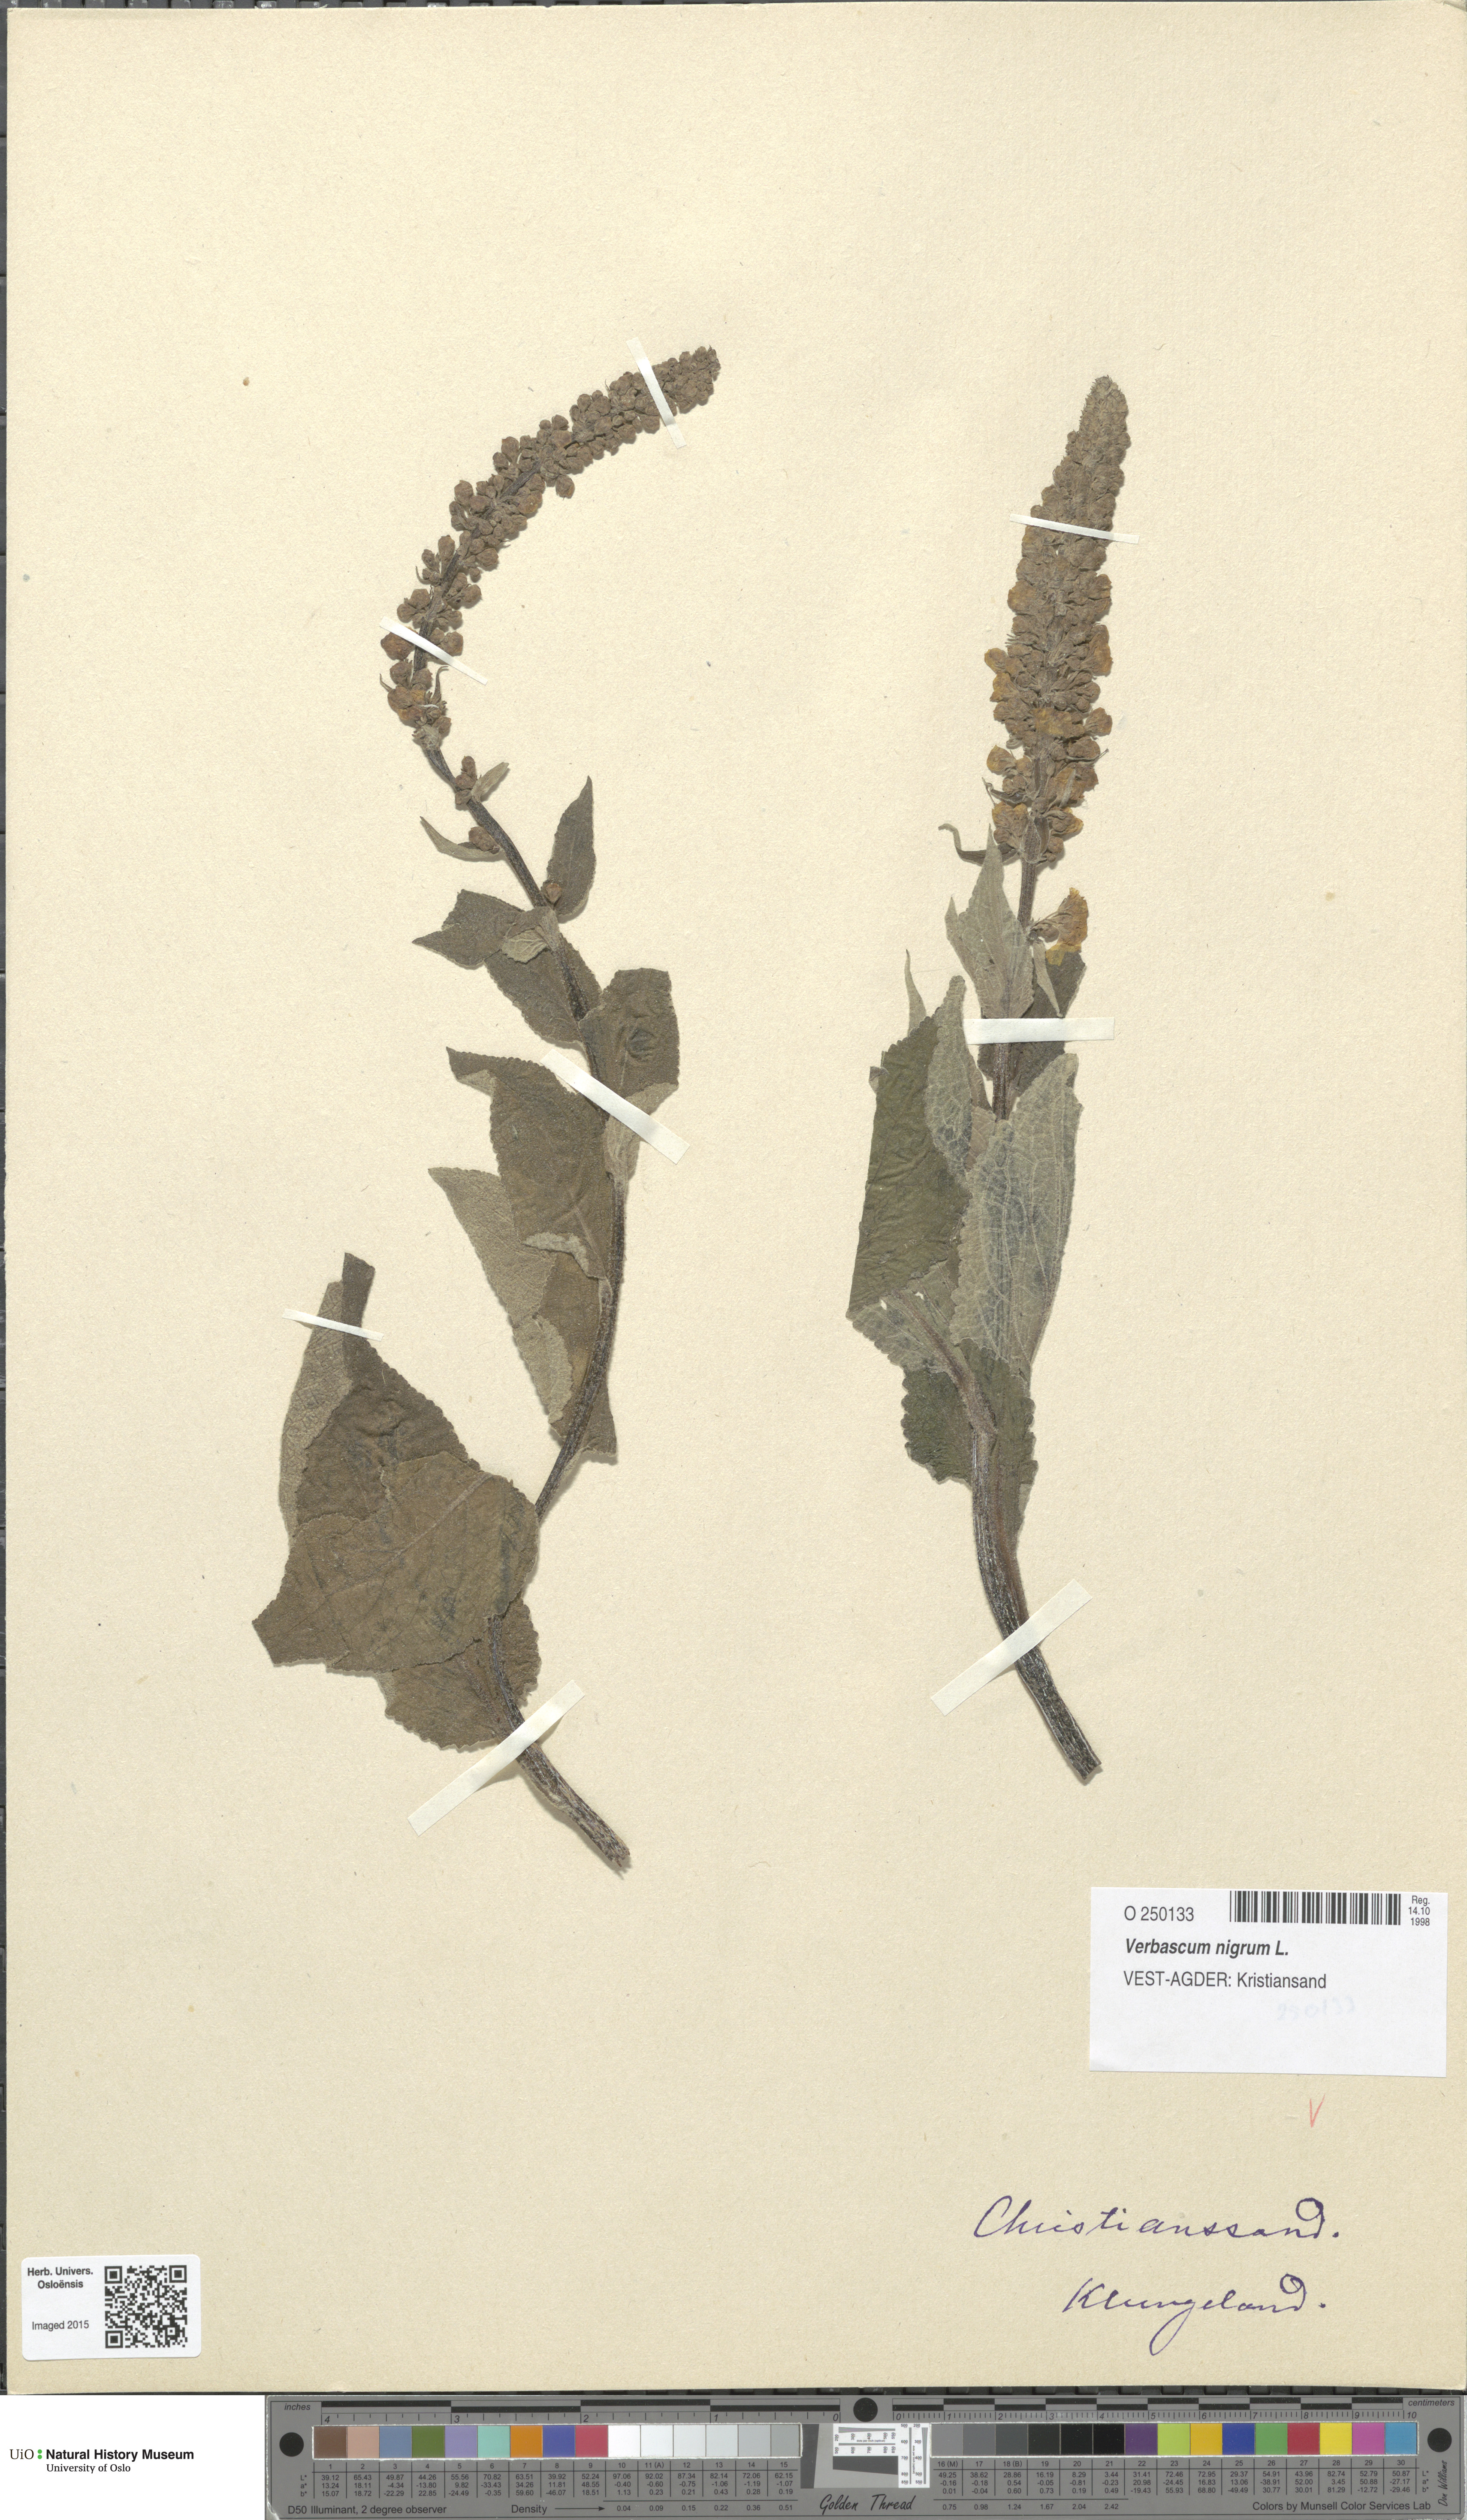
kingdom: Plantae
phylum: Tracheophyta
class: Magnoliopsida
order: Lamiales
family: Scrophulariaceae
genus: Verbascum
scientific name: Verbascum nigrum
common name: Dark mullein
